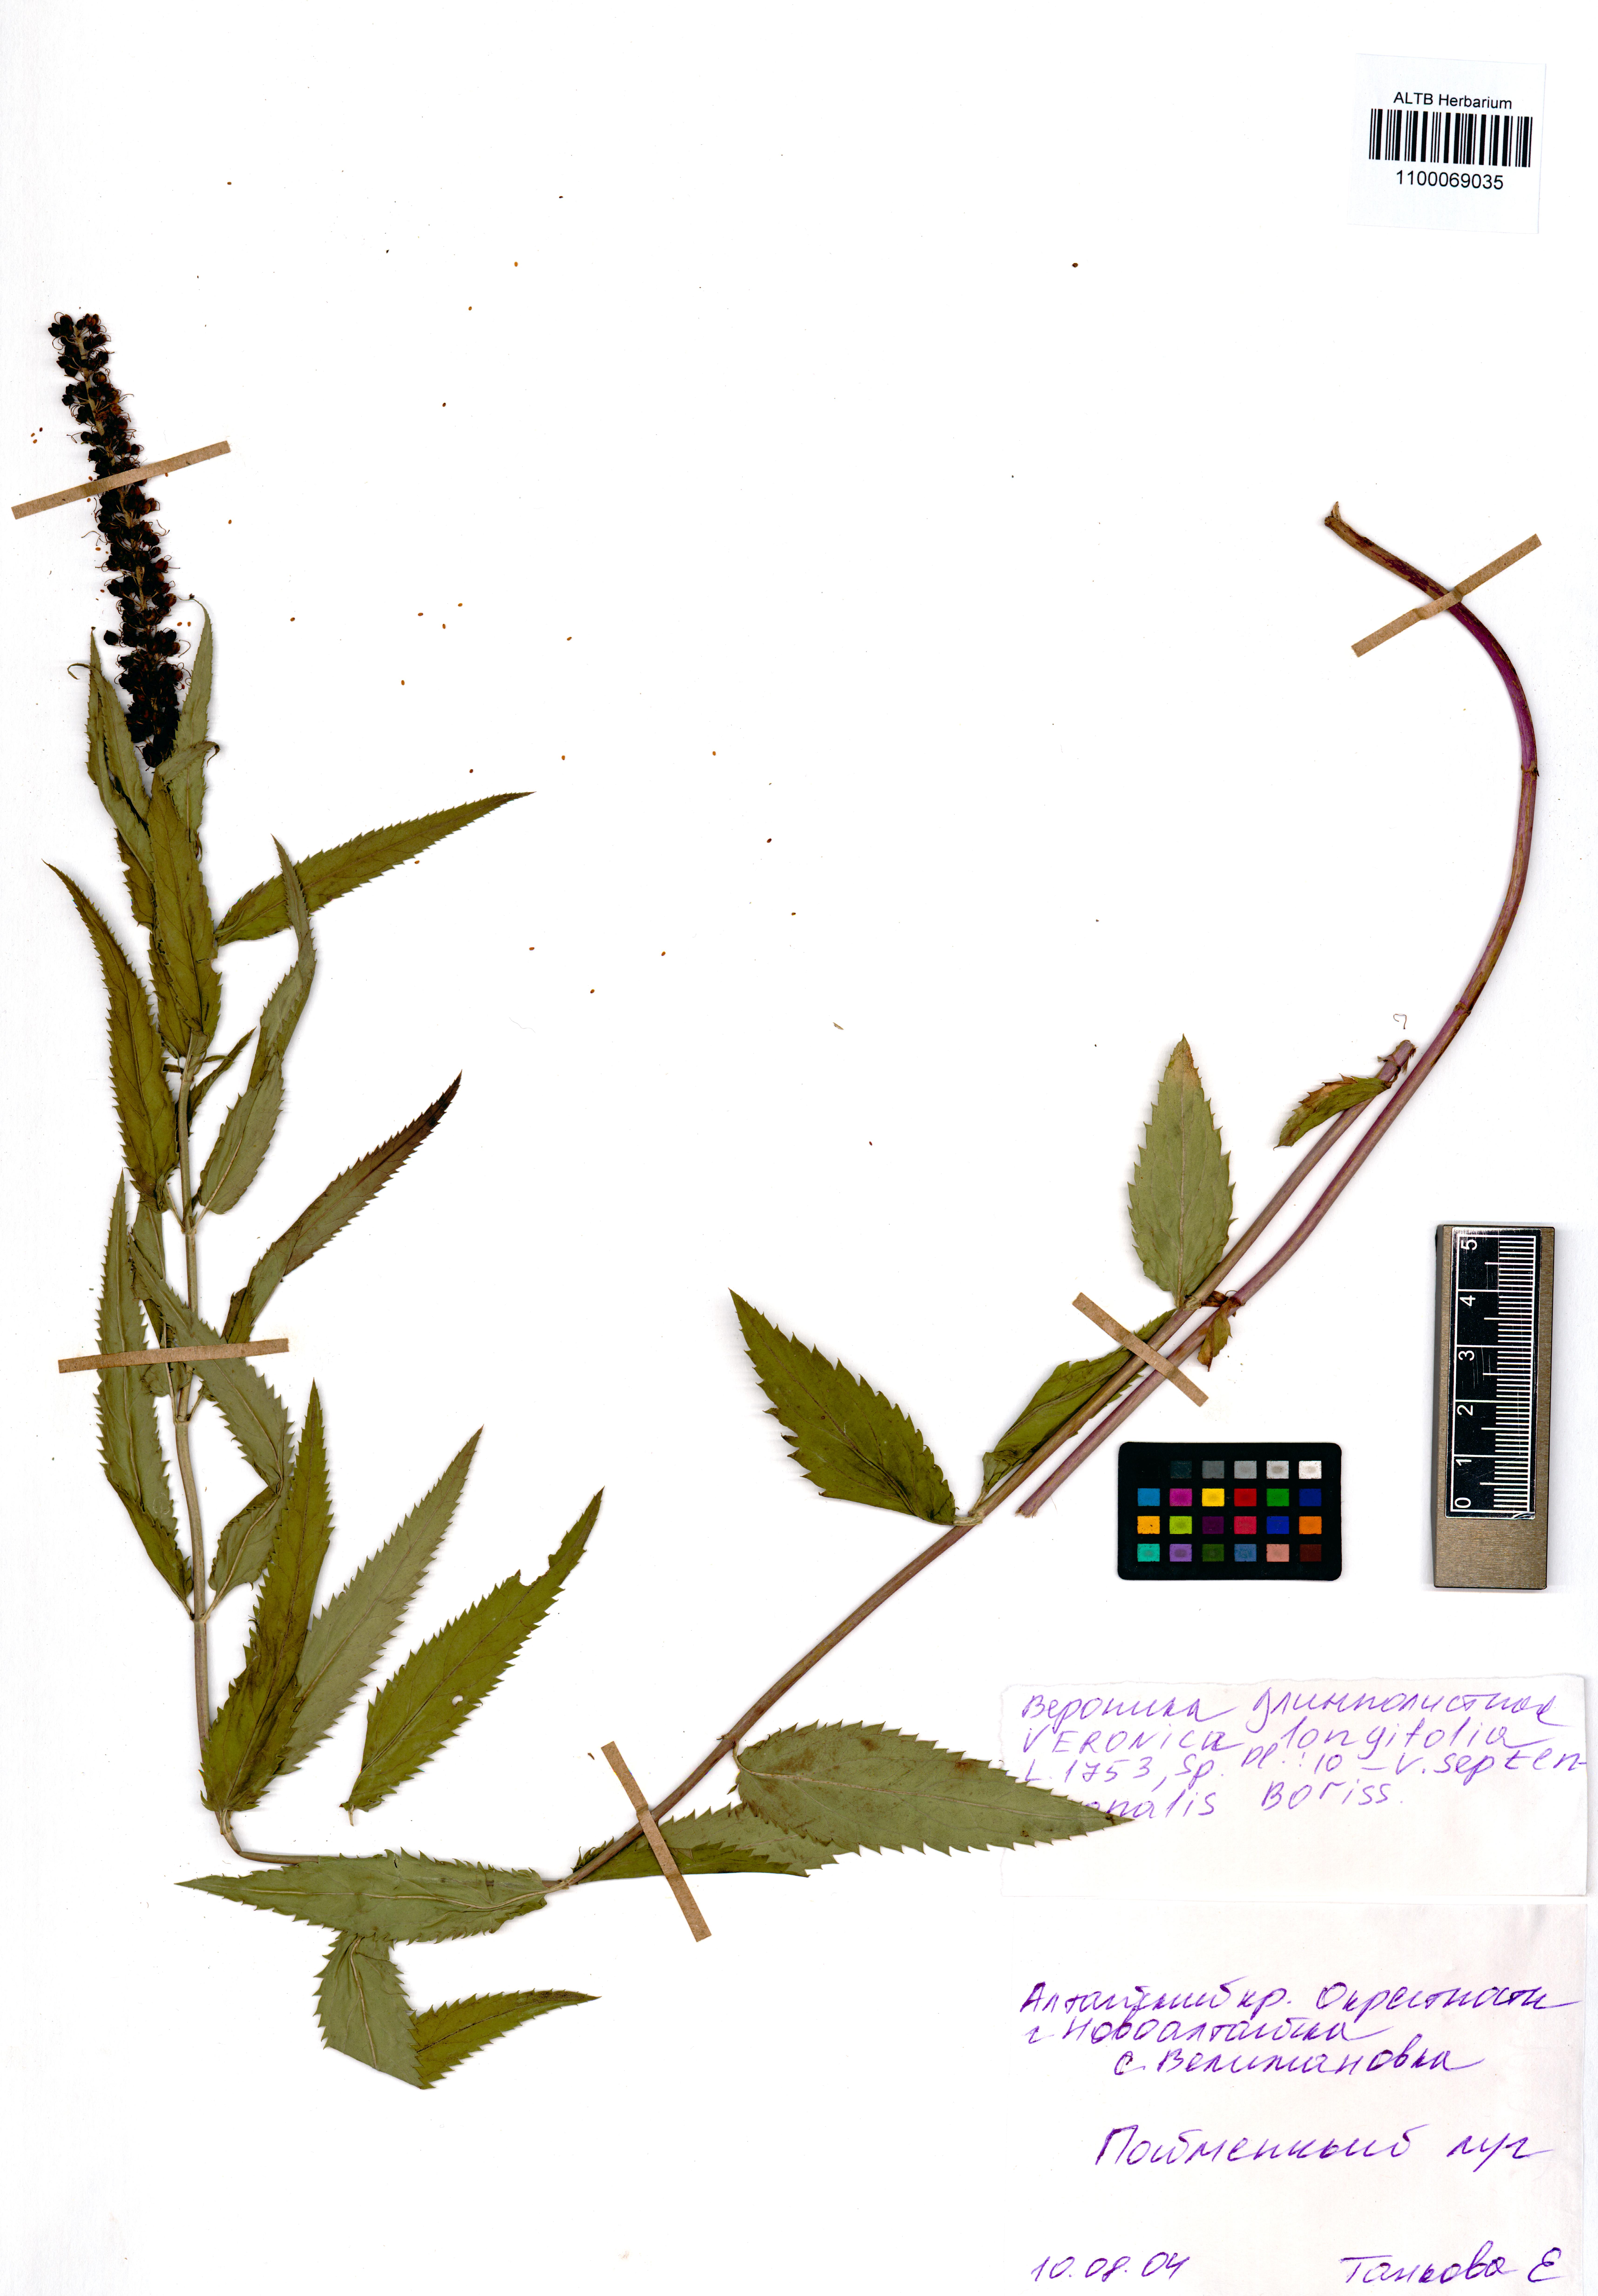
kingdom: Plantae
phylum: Tracheophyta
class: Magnoliopsida
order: Lamiales
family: Plantaginaceae
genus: Veronica
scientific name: Veronica longifolia
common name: Garden speedwell
